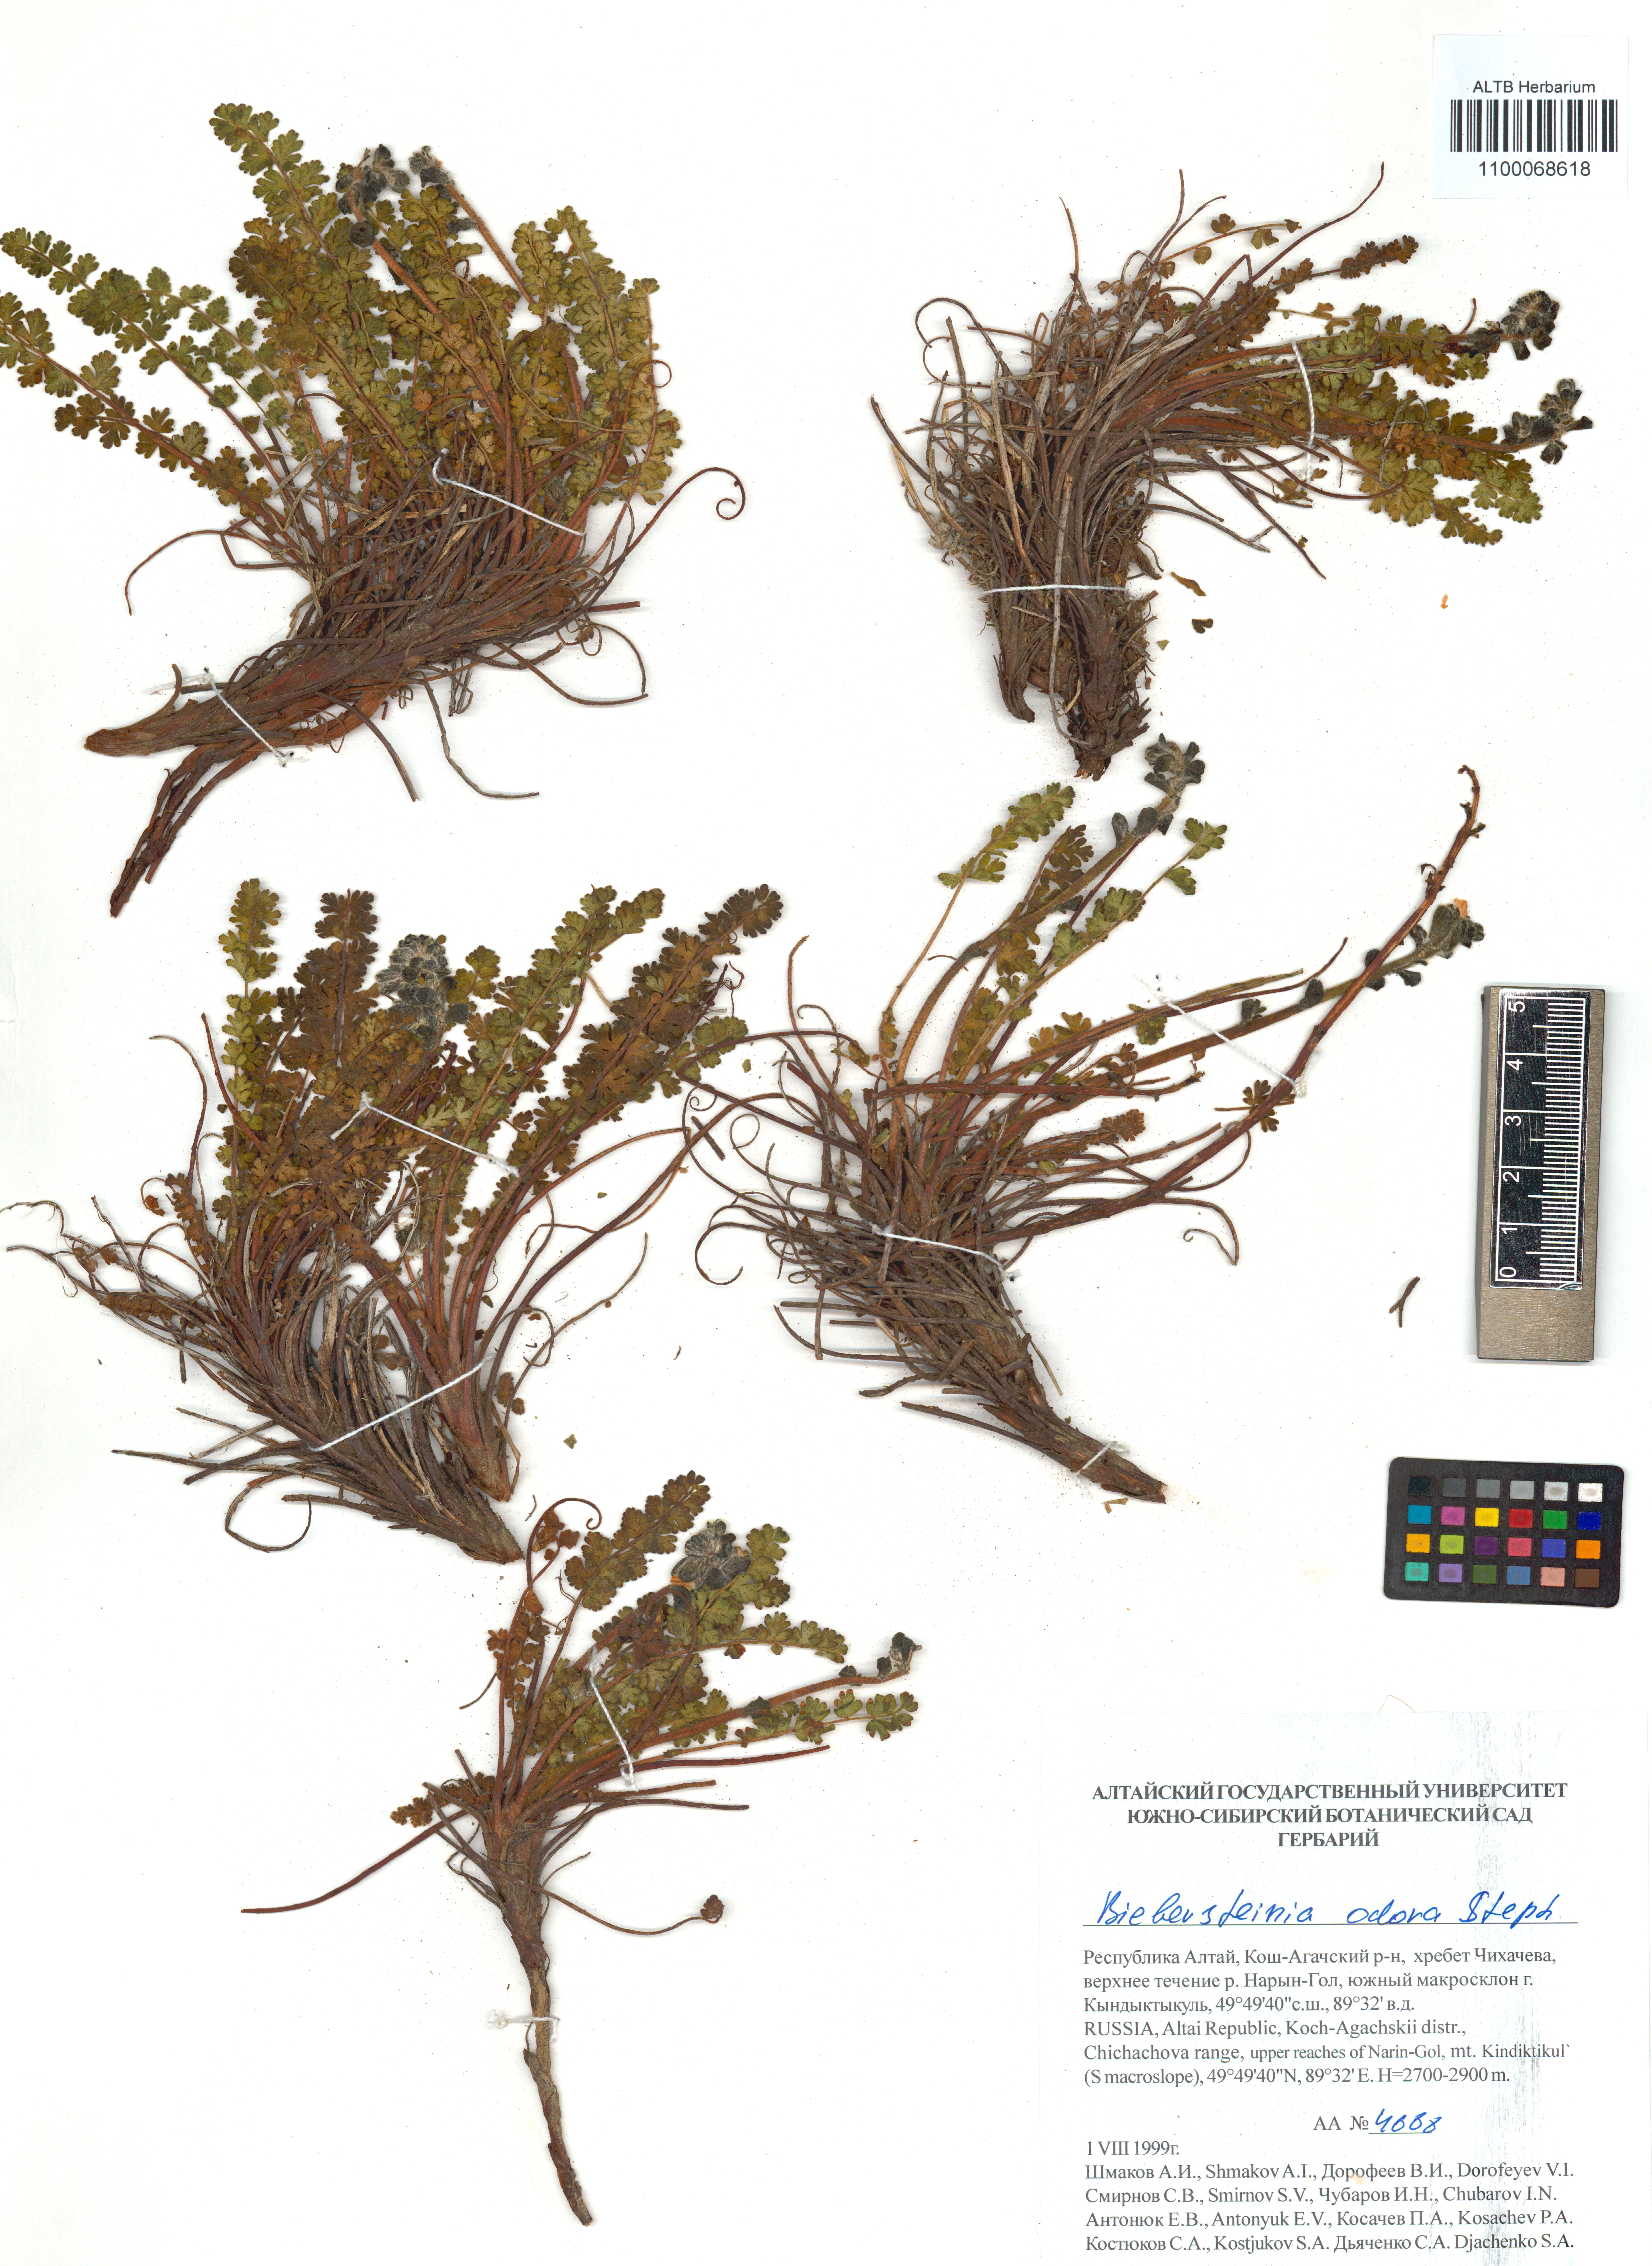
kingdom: Plantae
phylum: Tracheophyta
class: Magnoliopsida
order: Sapindales
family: Biebersteiniaceae
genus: Biebersteinia
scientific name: Biebersteinia odora
